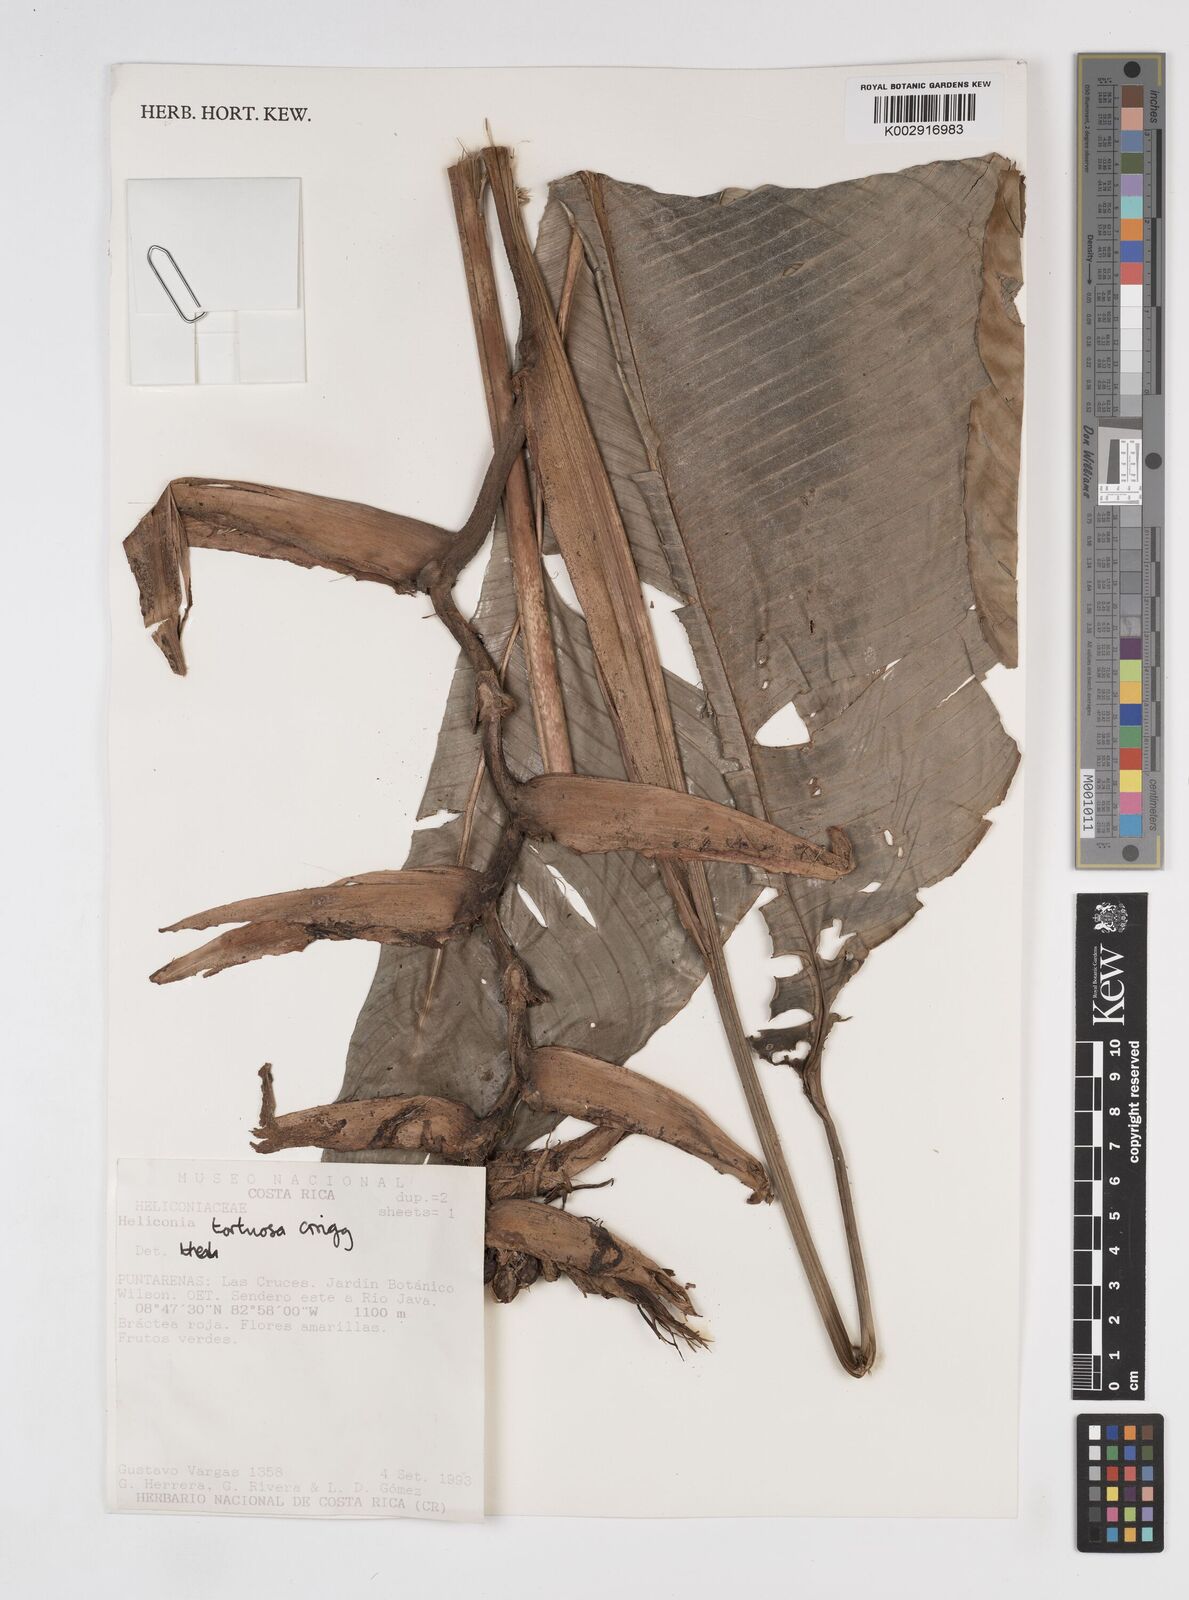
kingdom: Plantae
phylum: Tracheophyta
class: Liliopsida
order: Zingiberales
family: Heliconiaceae
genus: Heliconia
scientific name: Heliconia tortuosa
